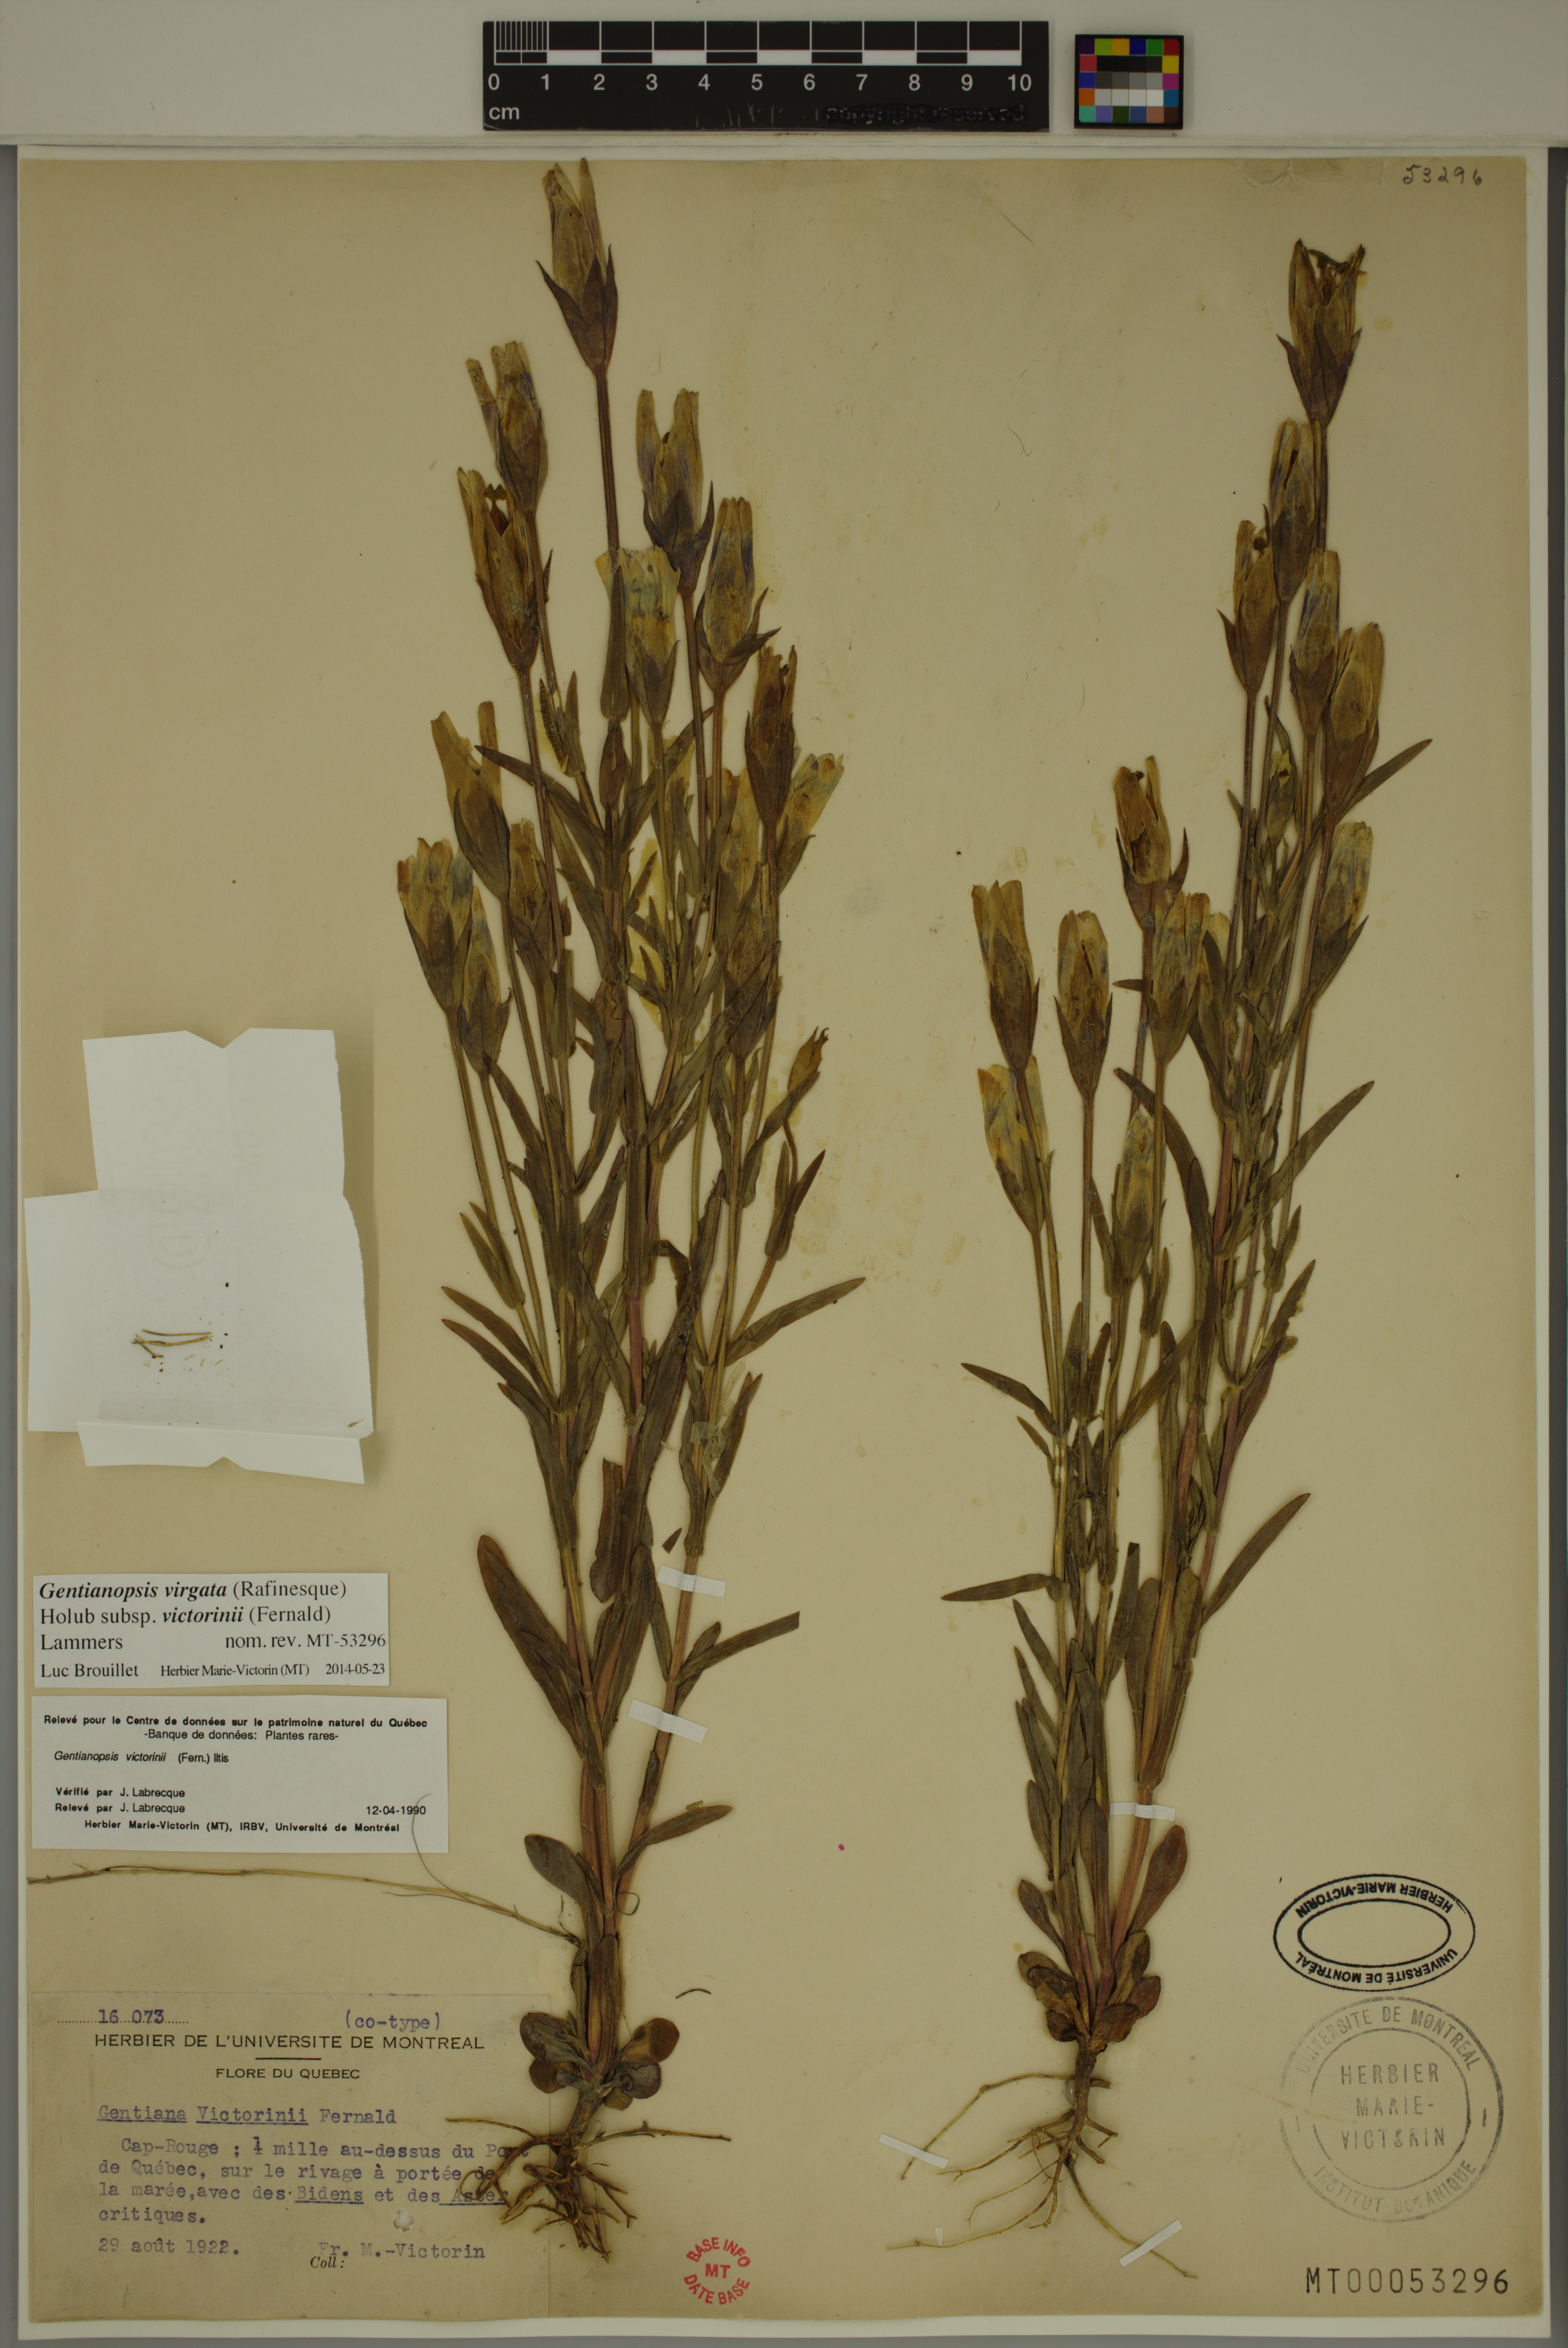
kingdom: Plantae
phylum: Tracheophyta
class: Magnoliopsida
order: Gentianales
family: Gentianaceae
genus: Gentianopsis
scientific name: Gentianopsis victorinii
